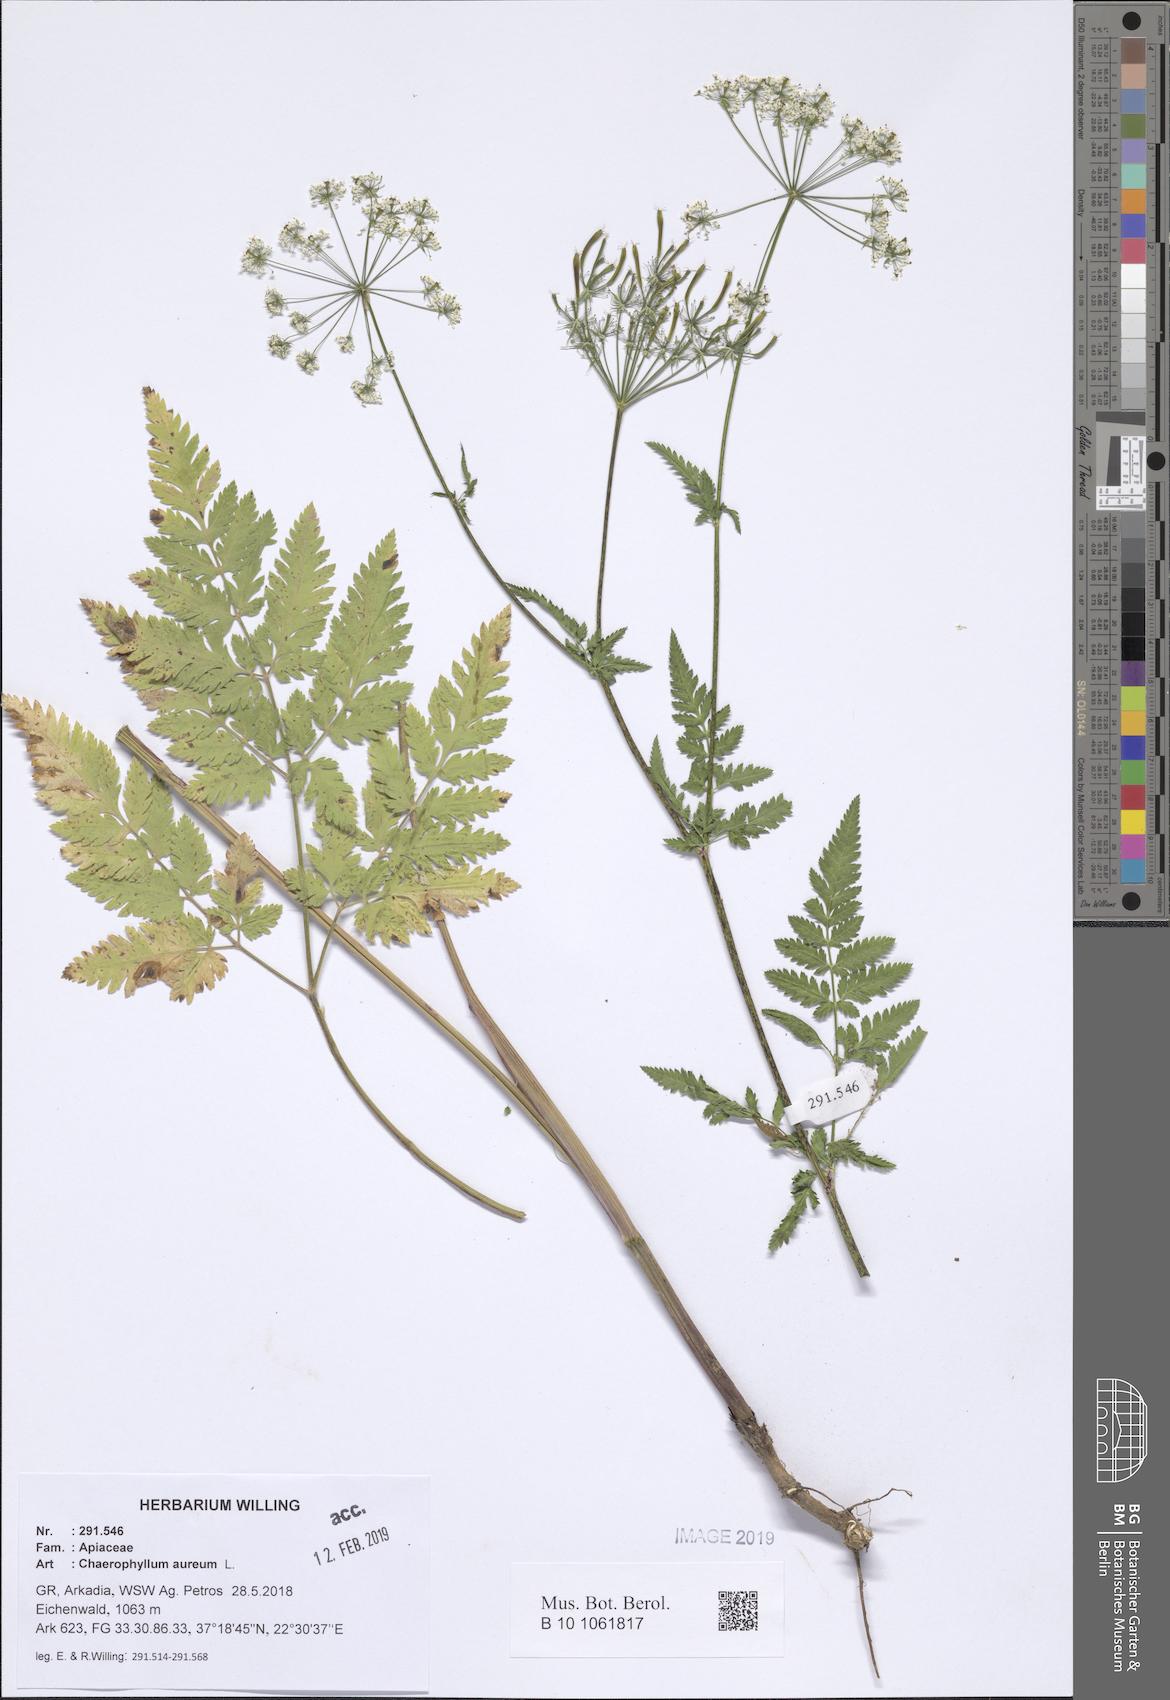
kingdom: Plantae
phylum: Tracheophyta
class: Magnoliopsida
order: Apiales
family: Apiaceae
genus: Chaerophyllum
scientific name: Chaerophyllum aureum
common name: Golden chervil
